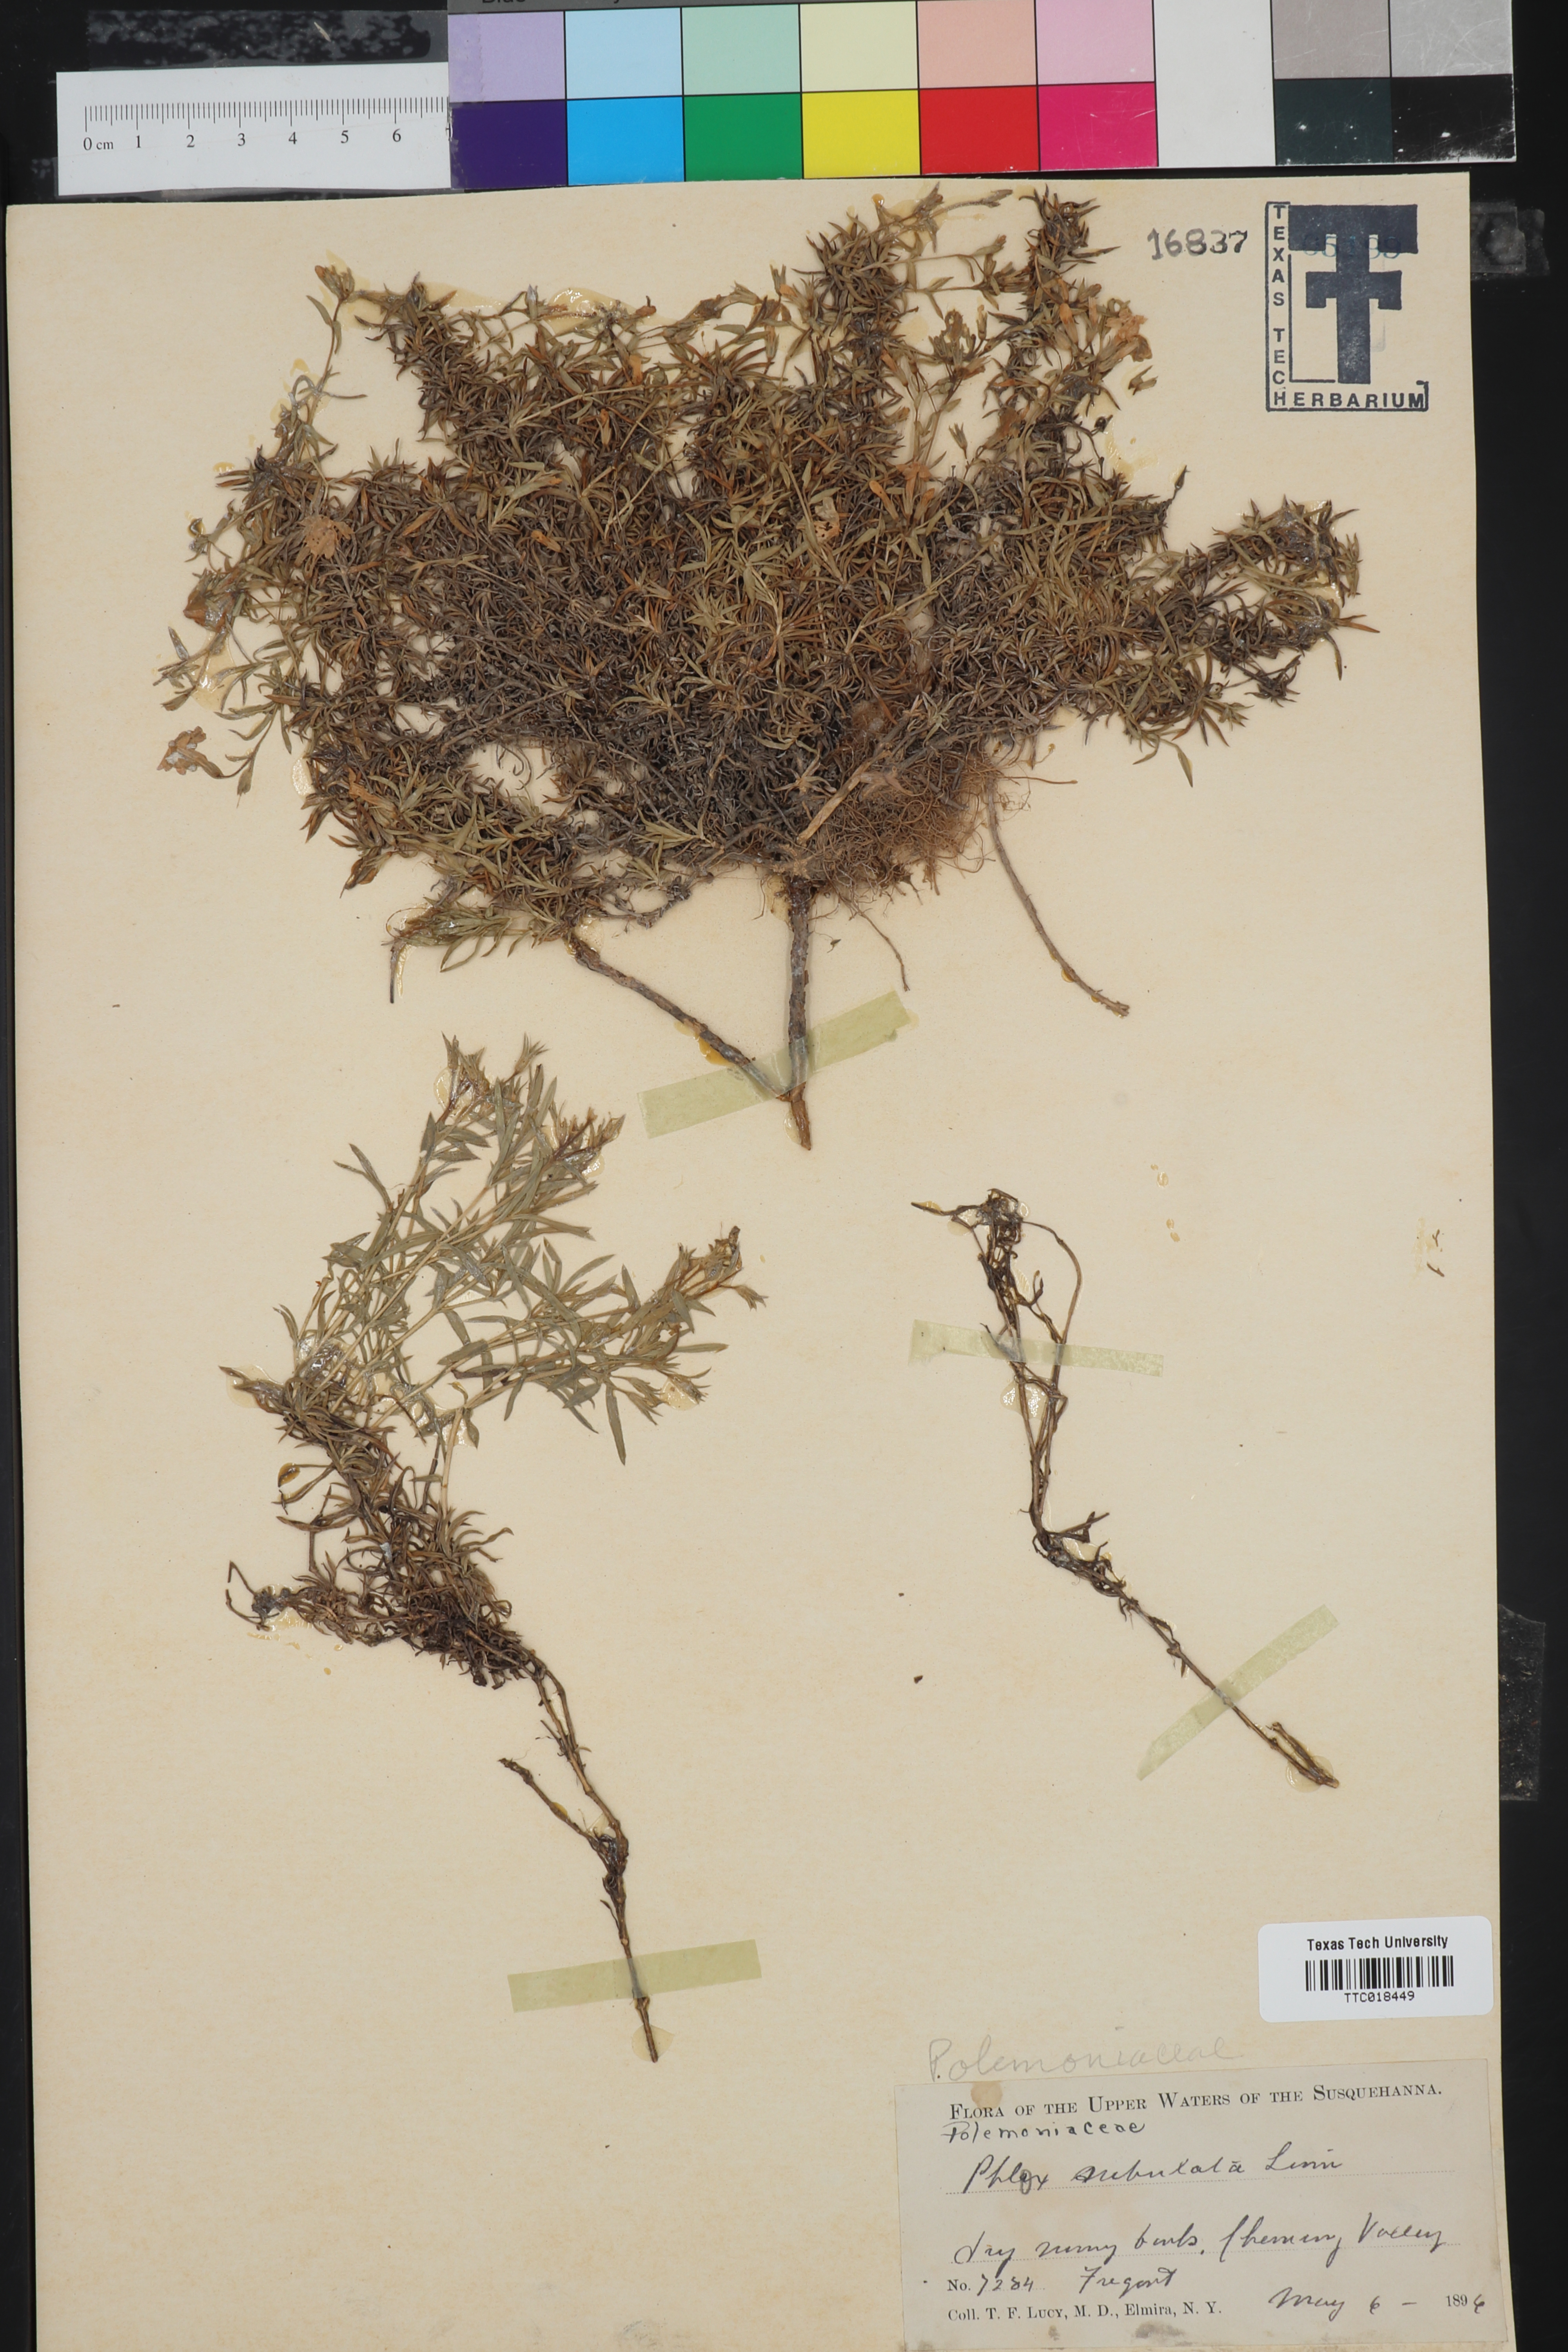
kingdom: Plantae
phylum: Tracheophyta
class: Magnoliopsida
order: Ericales
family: Polemoniaceae
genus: Phlox
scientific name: Phlox subulata
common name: Moss phlox
